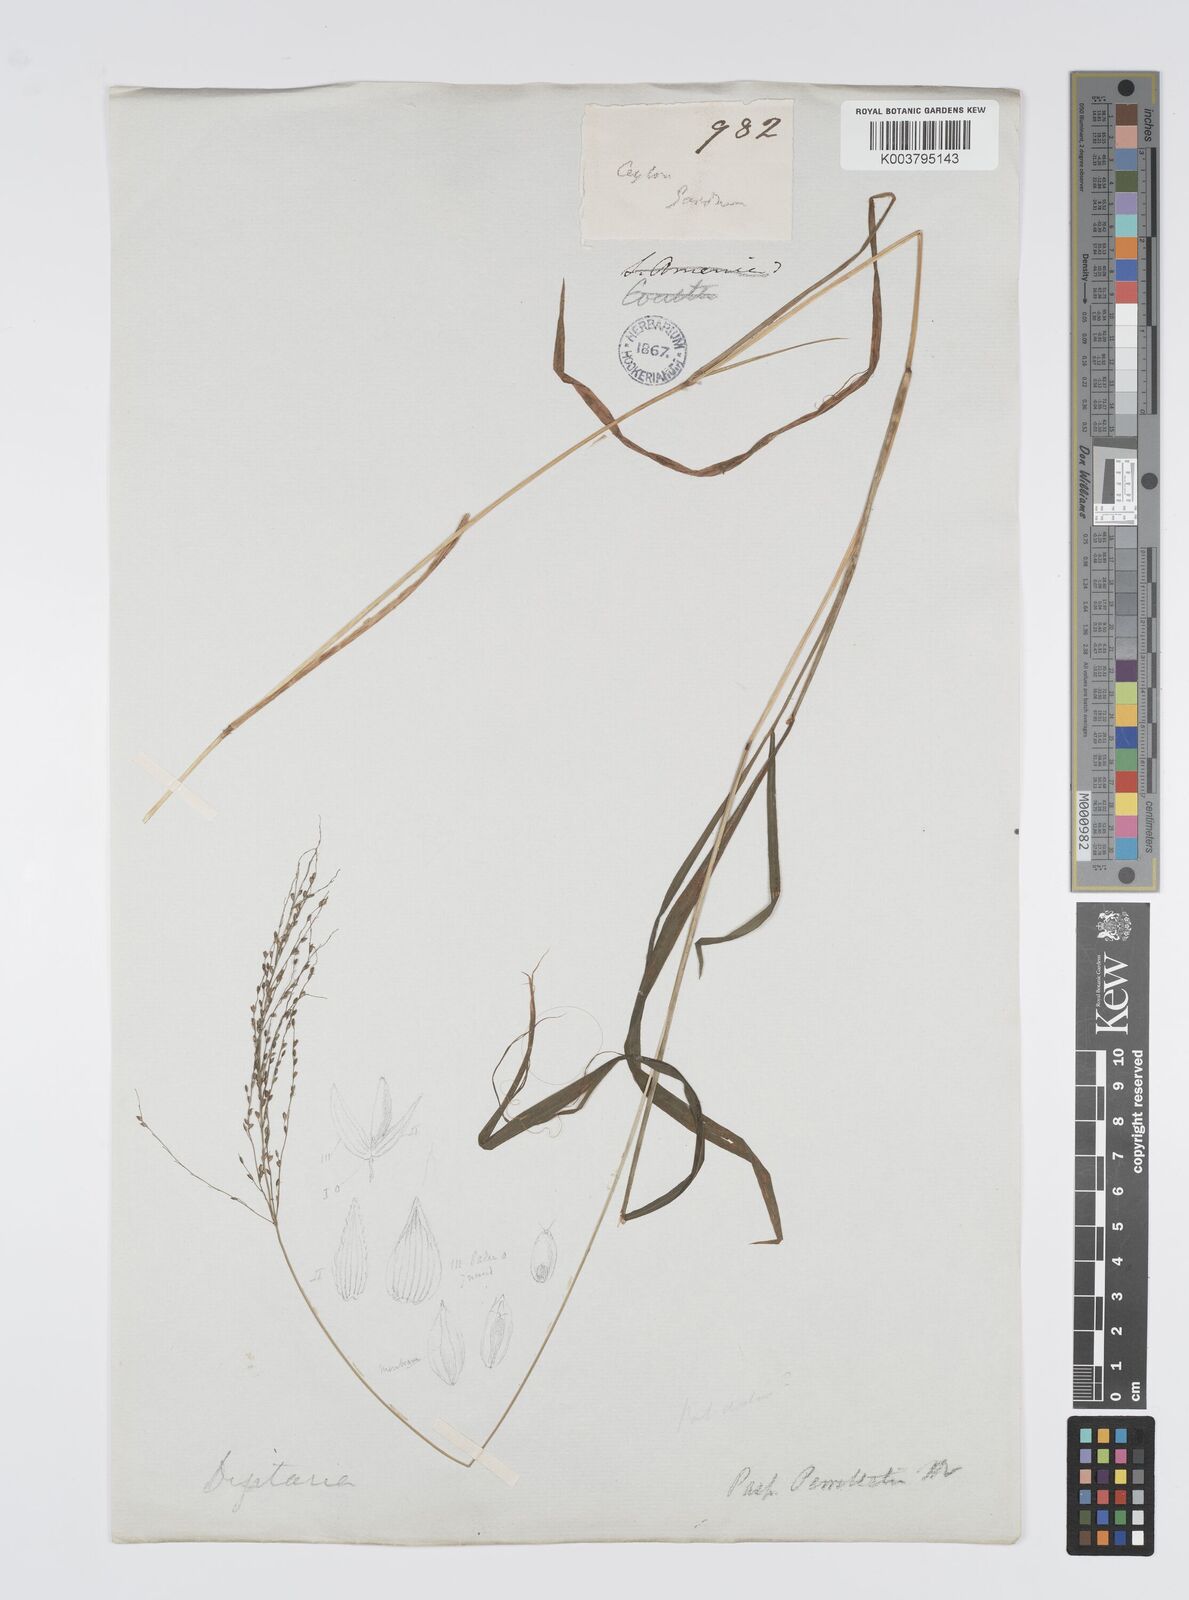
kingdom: Plantae
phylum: Tracheophyta
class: Liliopsida
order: Poales
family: Poaceae
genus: Digitaria
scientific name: Digitaria wallichiana
